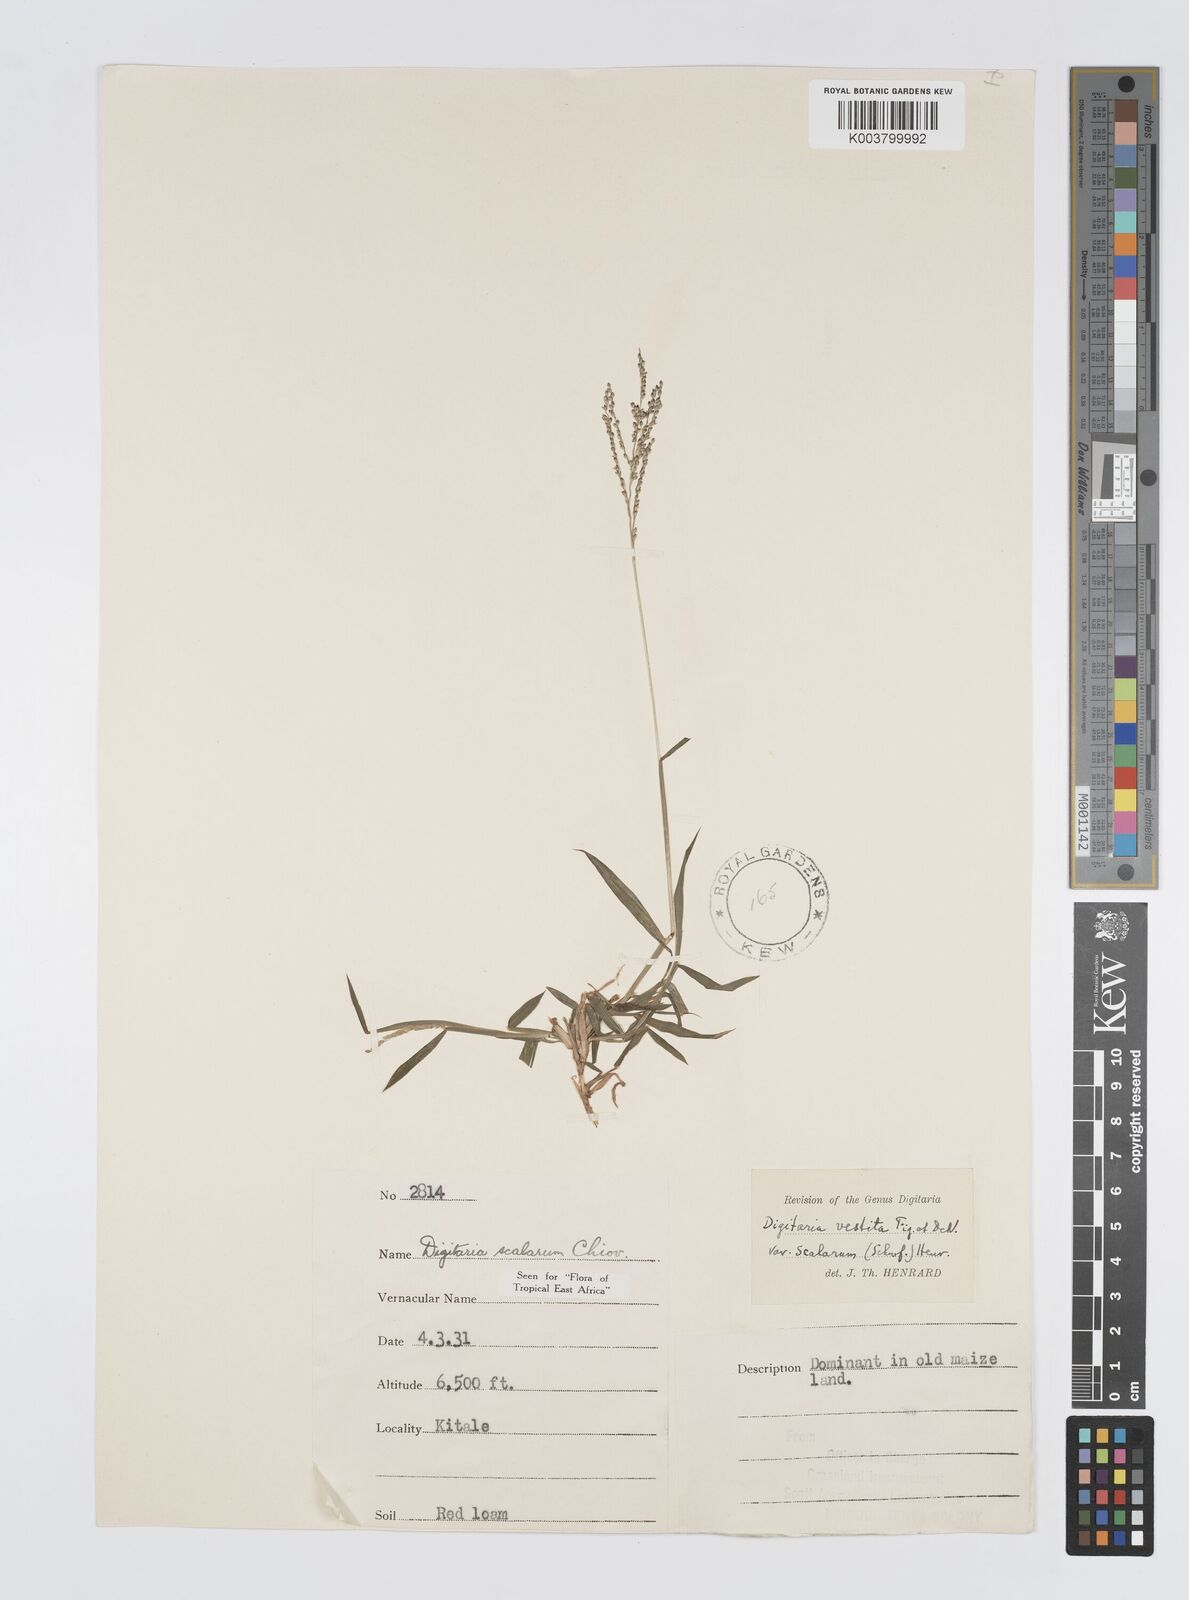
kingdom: Plantae
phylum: Tracheophyta
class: Liliopsida
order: Poales
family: Poaceae
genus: Digitaria
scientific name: Digitaria abyssinica
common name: African couchgrass
